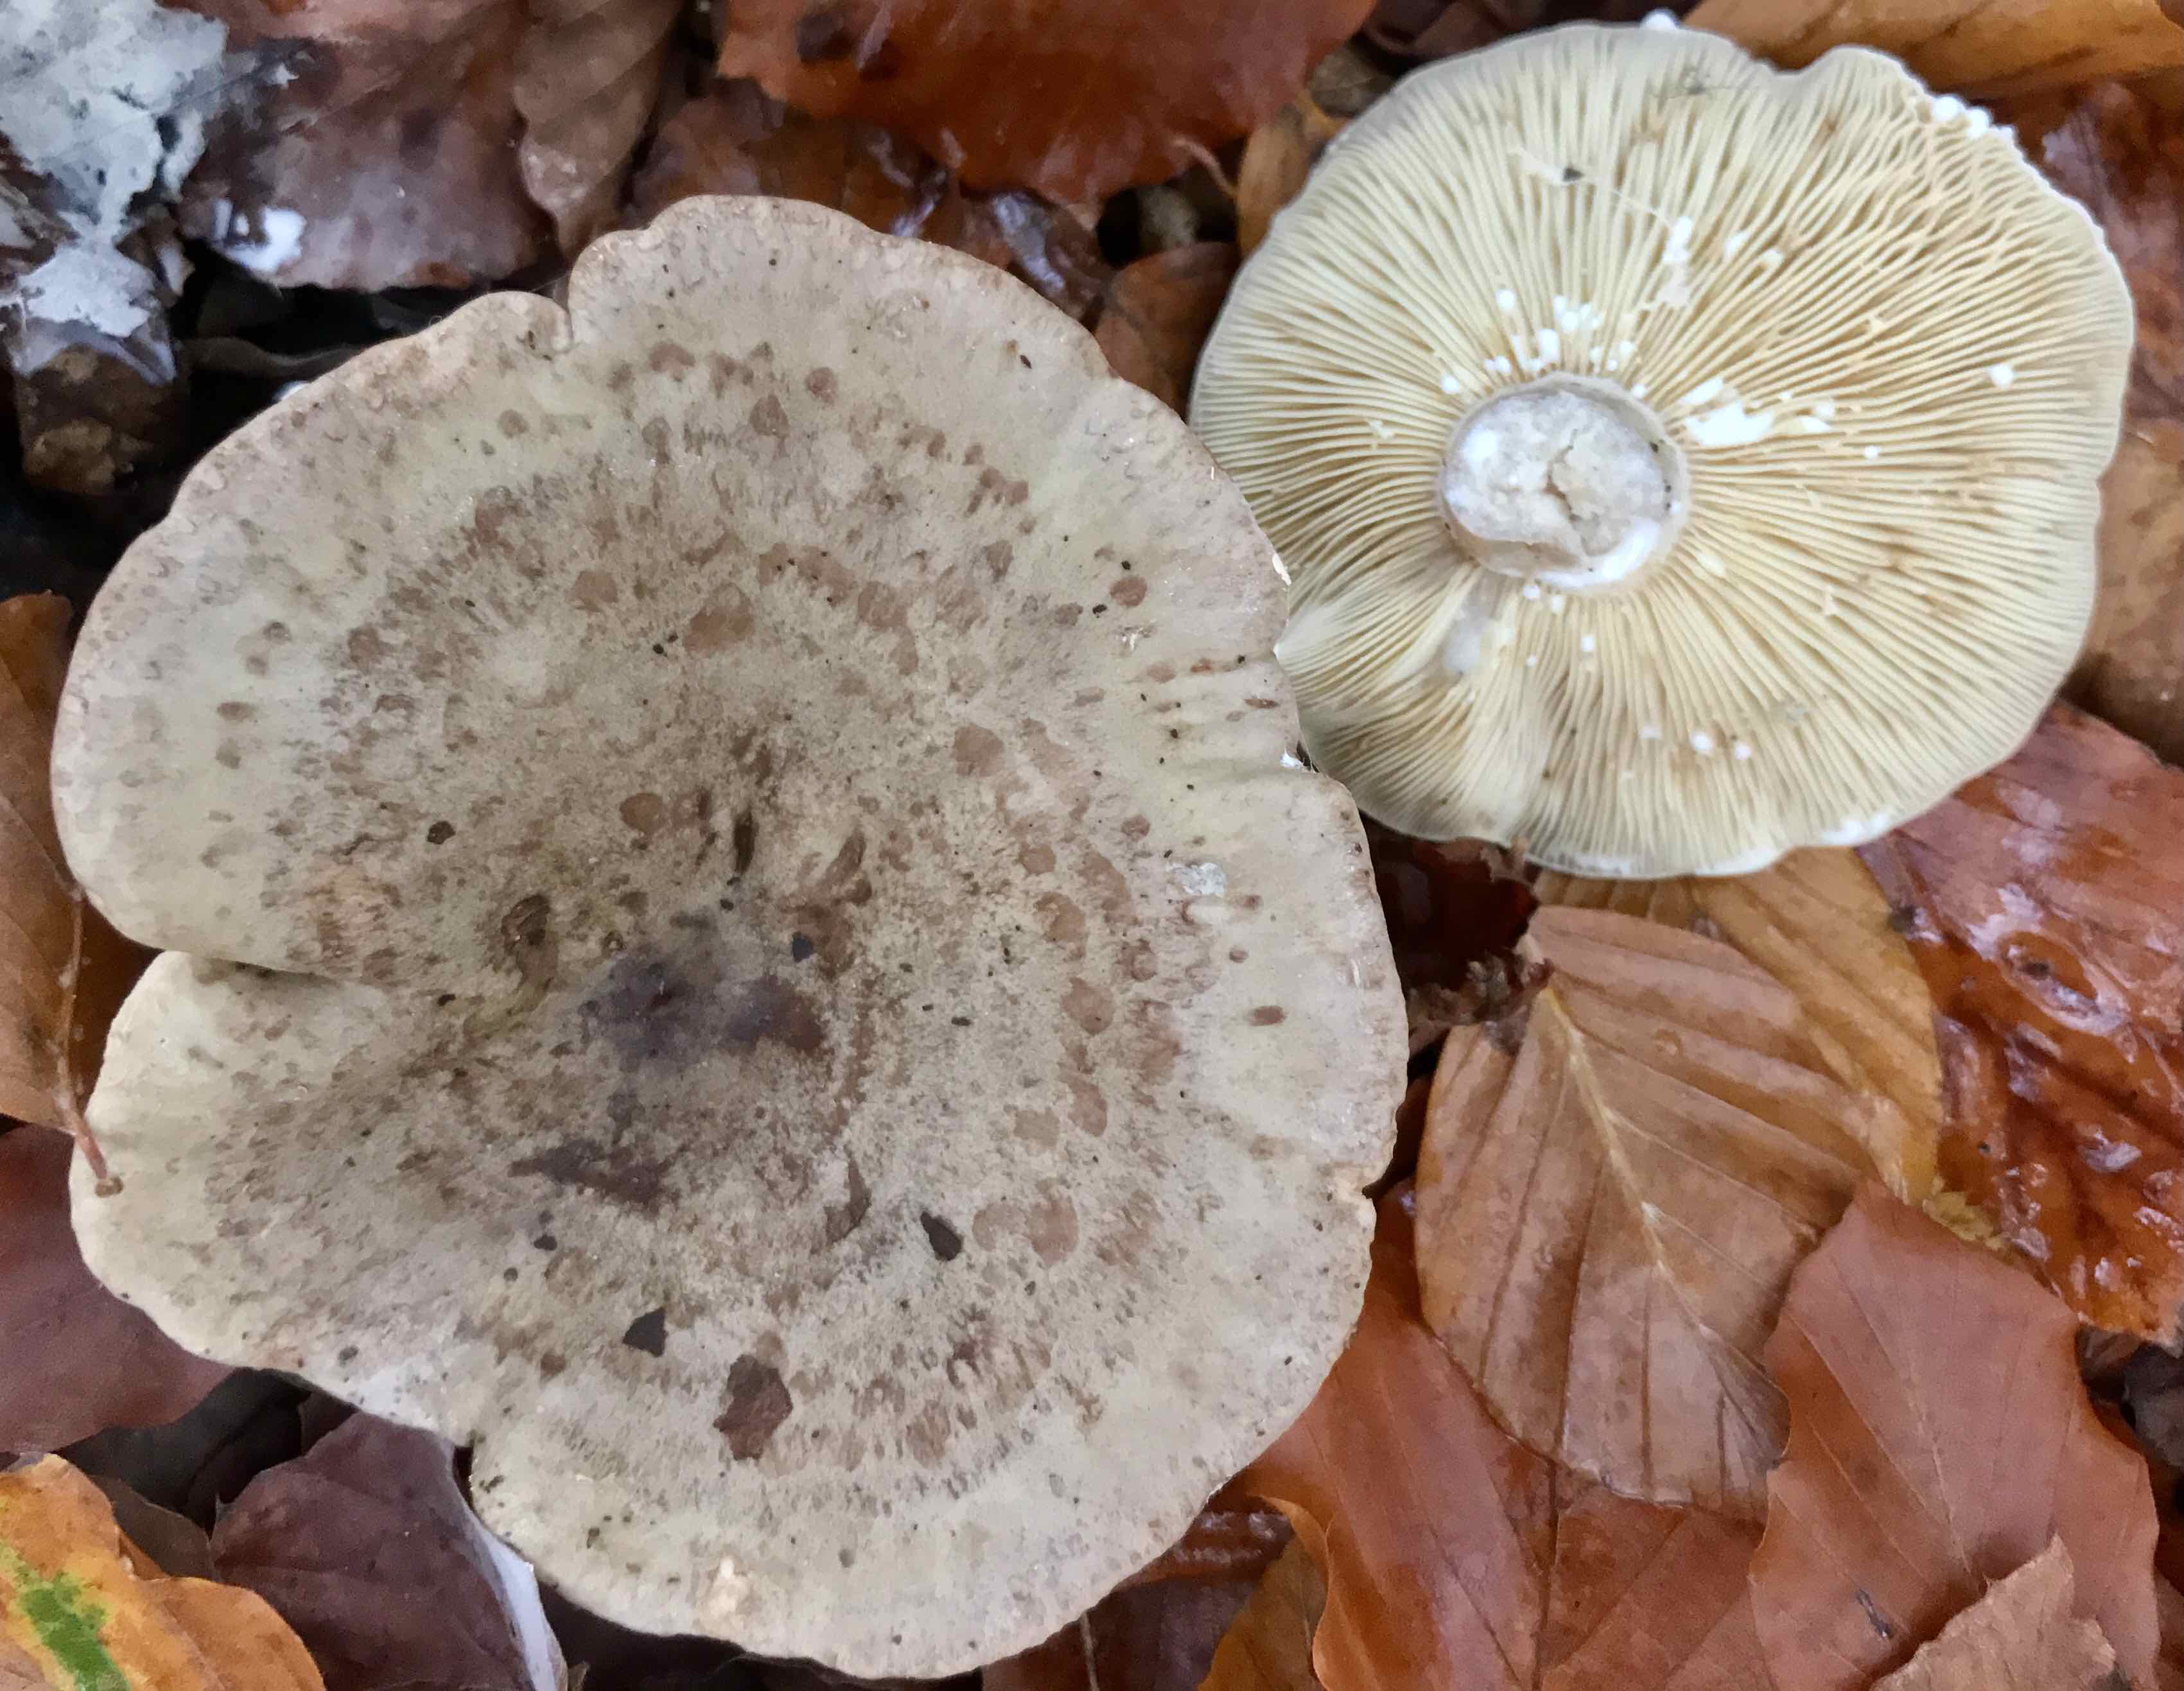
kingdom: Fungi
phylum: Basidiomycota
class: Agaricomycetes
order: Russulales
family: Russulaceae
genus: Lactarius
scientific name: Lactarius blennius
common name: dråbeplettet mælkehat
